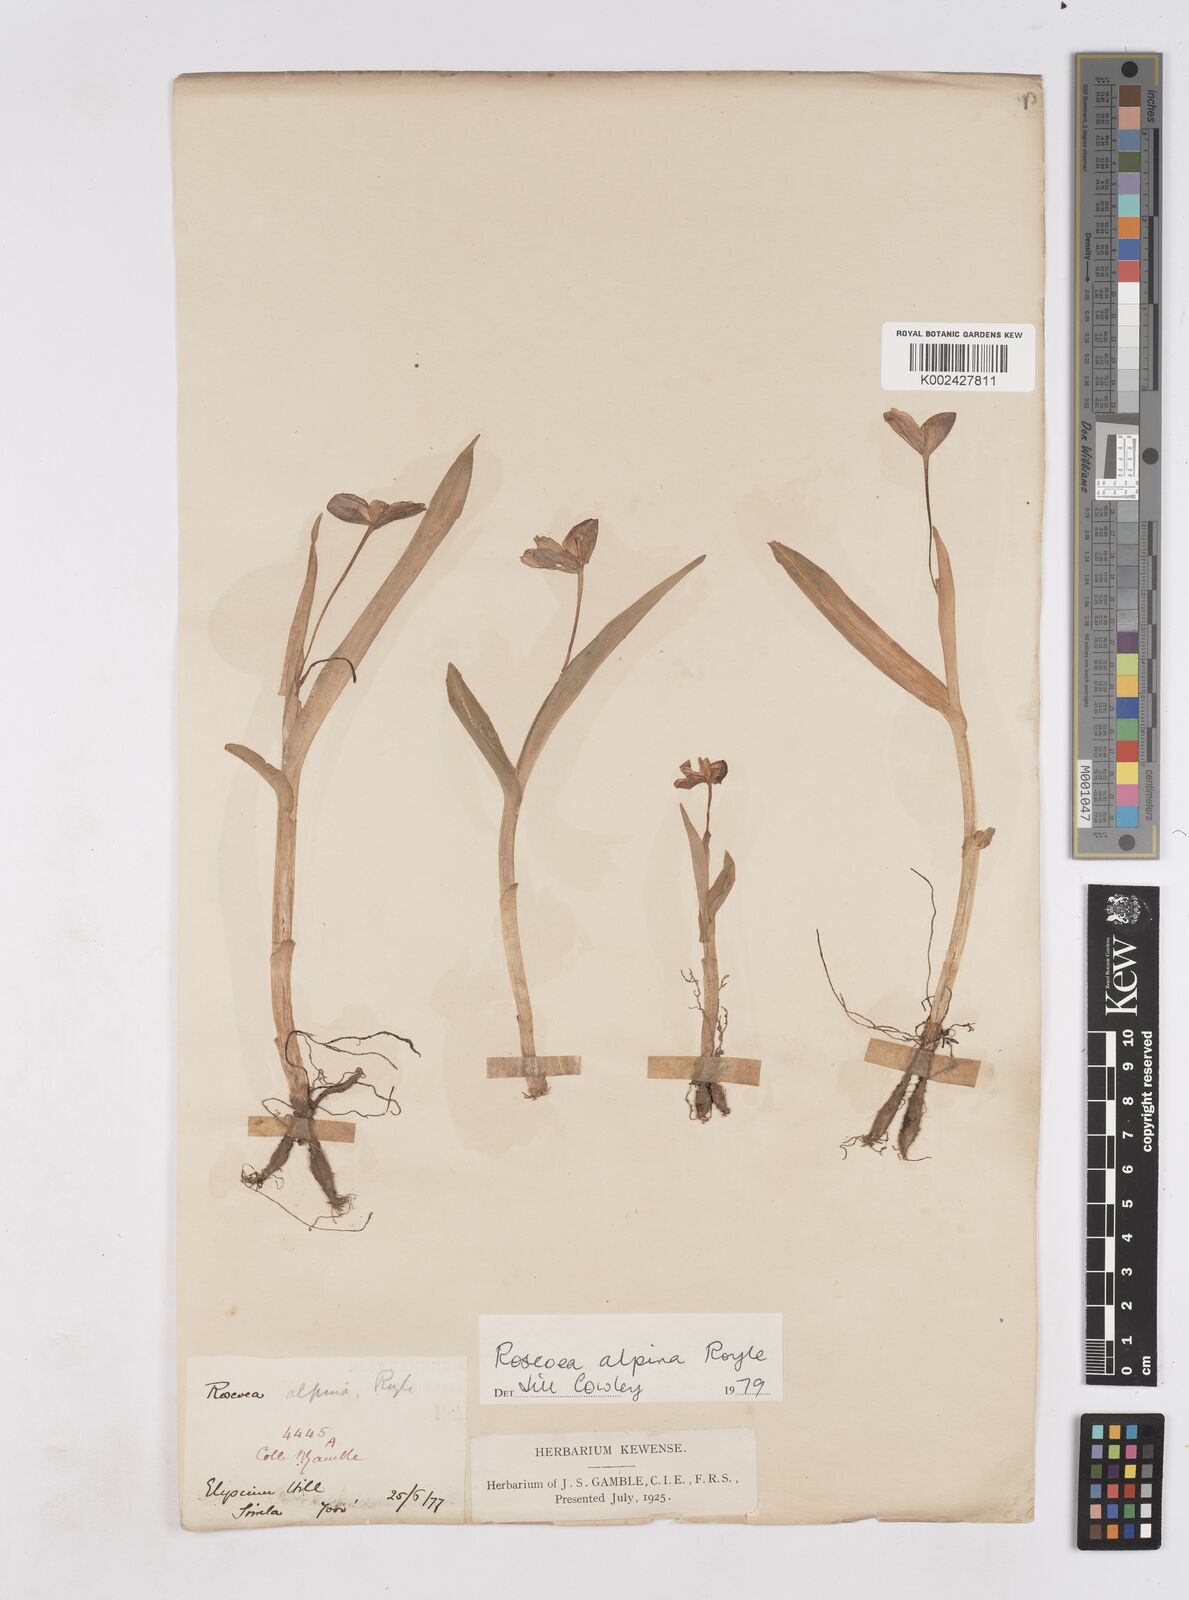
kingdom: Plantae
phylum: Tracheophyta
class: Liliopsida
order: Zingiberales
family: Zingiberaceae
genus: Roscoea
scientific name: Roscoea alpina
